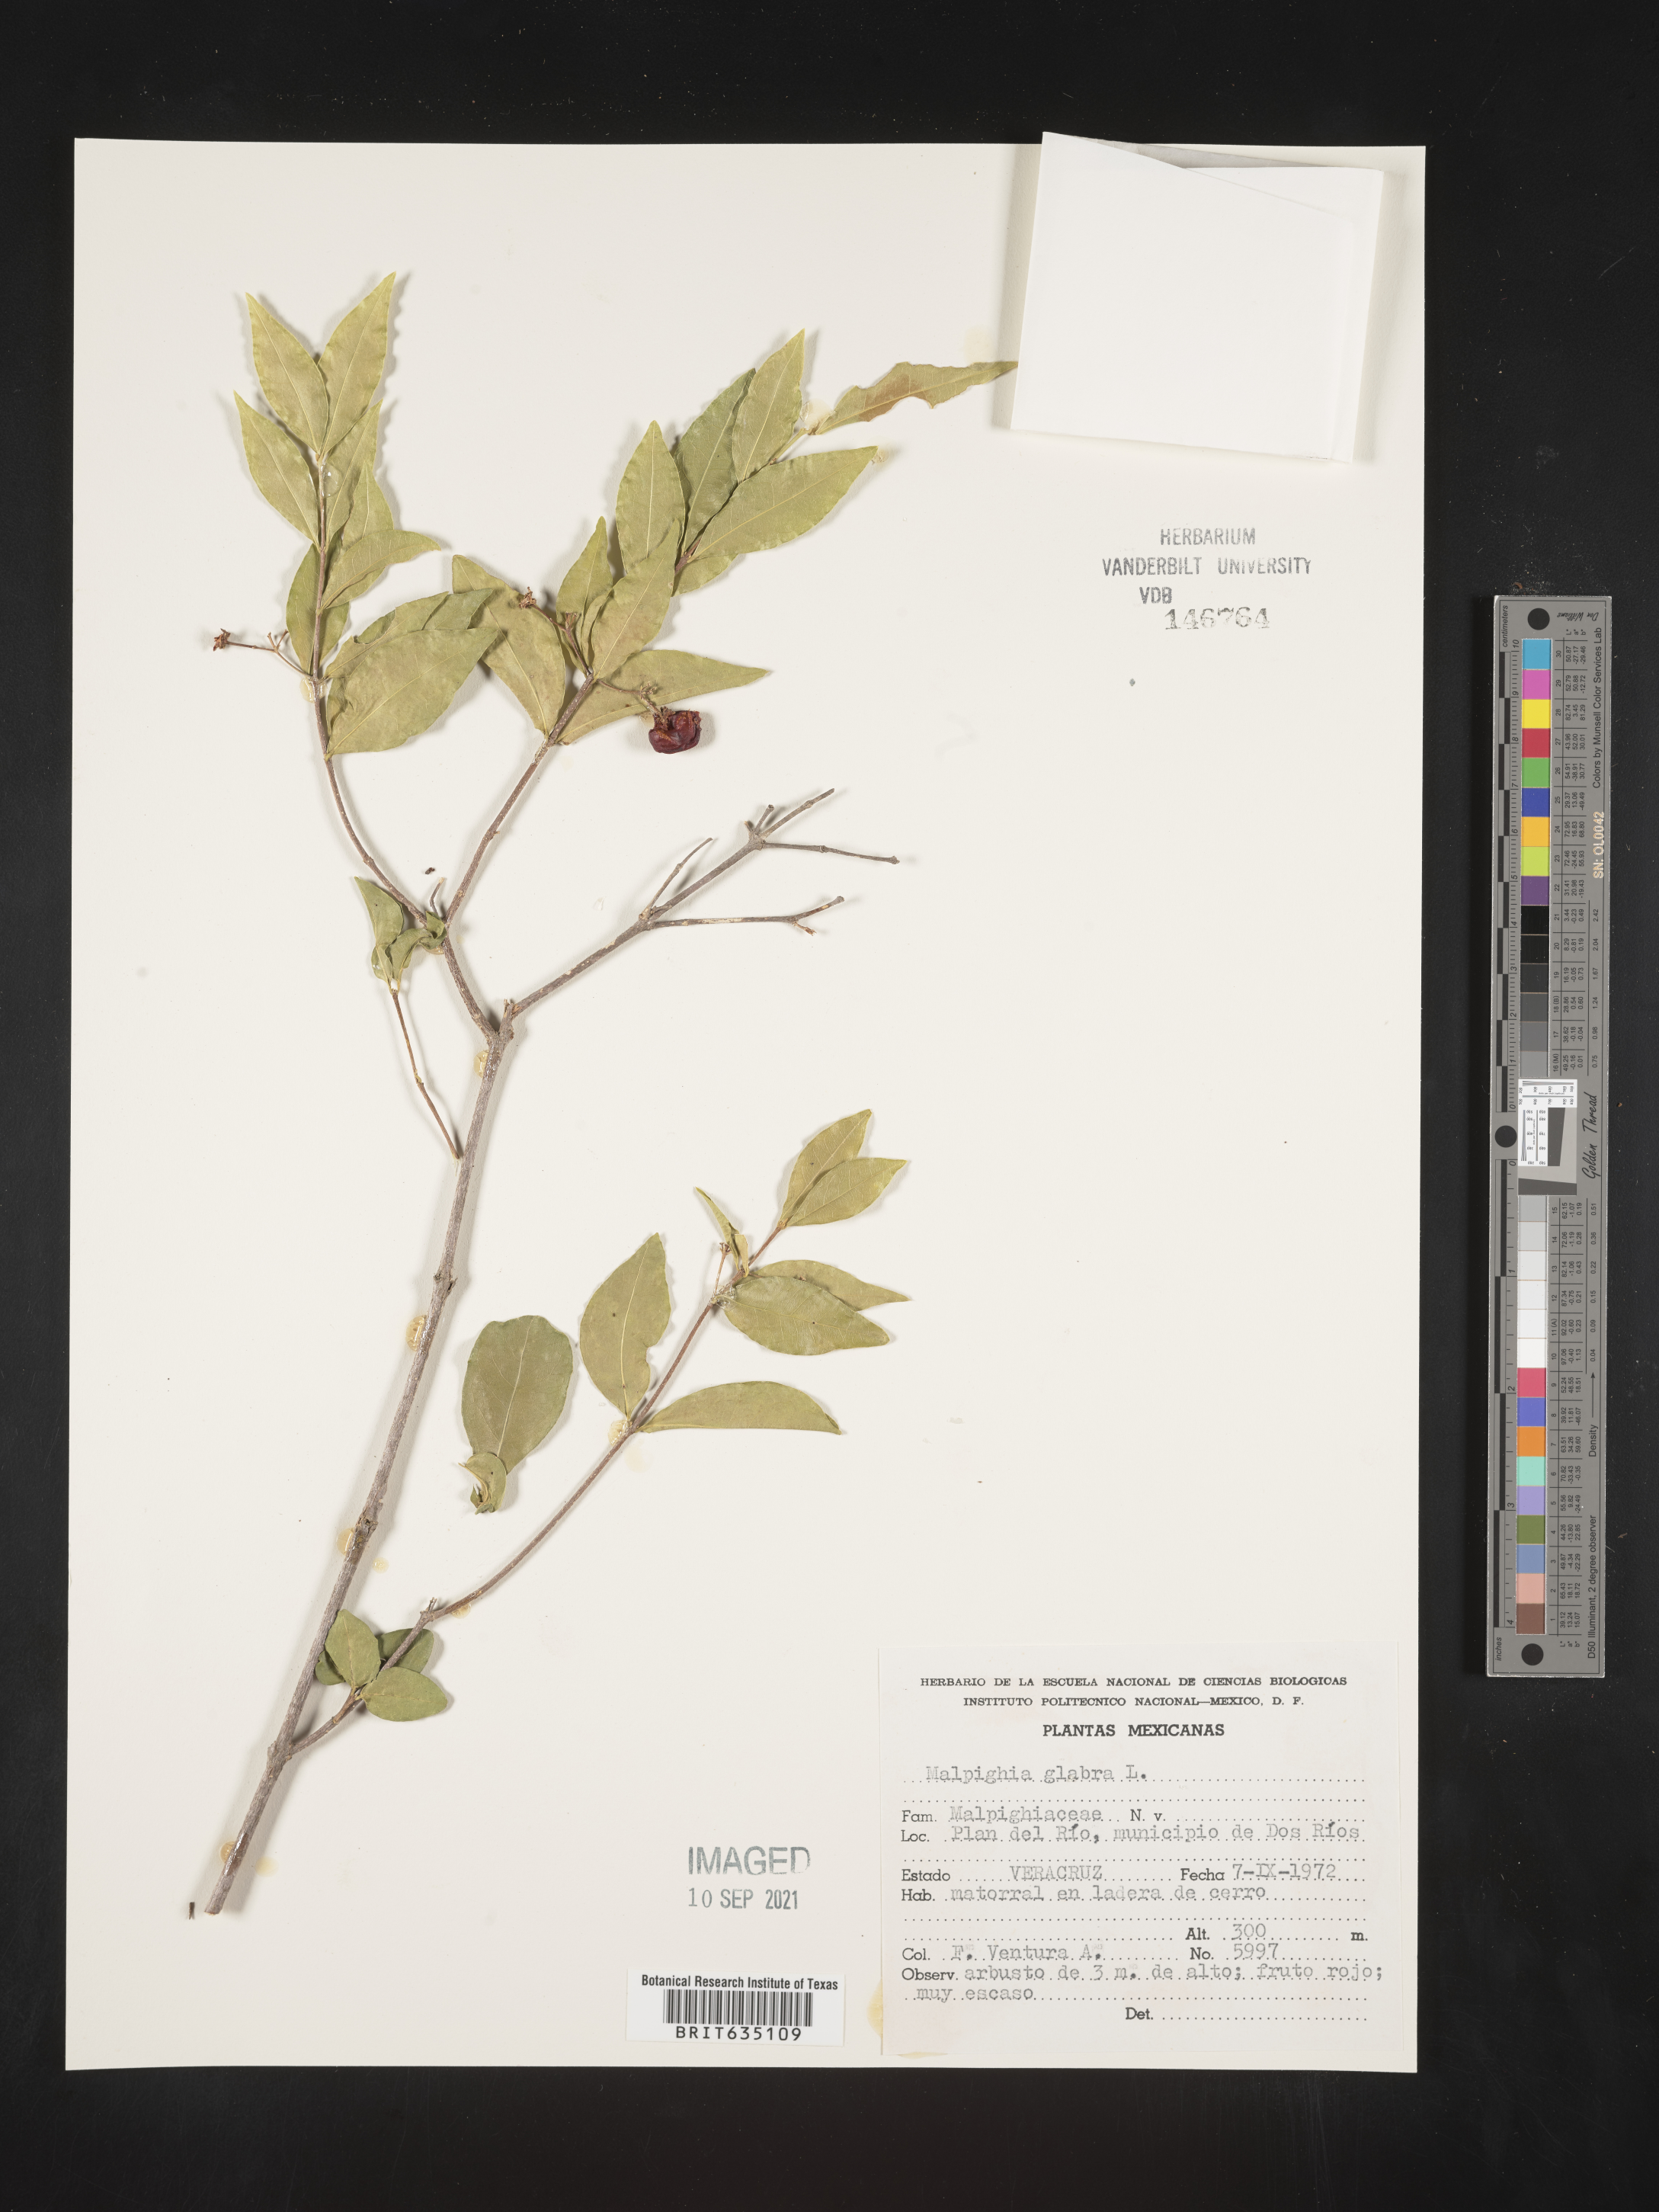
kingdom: Plantae
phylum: Tracheophyta
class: Magnoliopsida
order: Malpighiales
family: Malpighiaceae
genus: Malpighia
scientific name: Malpighia
